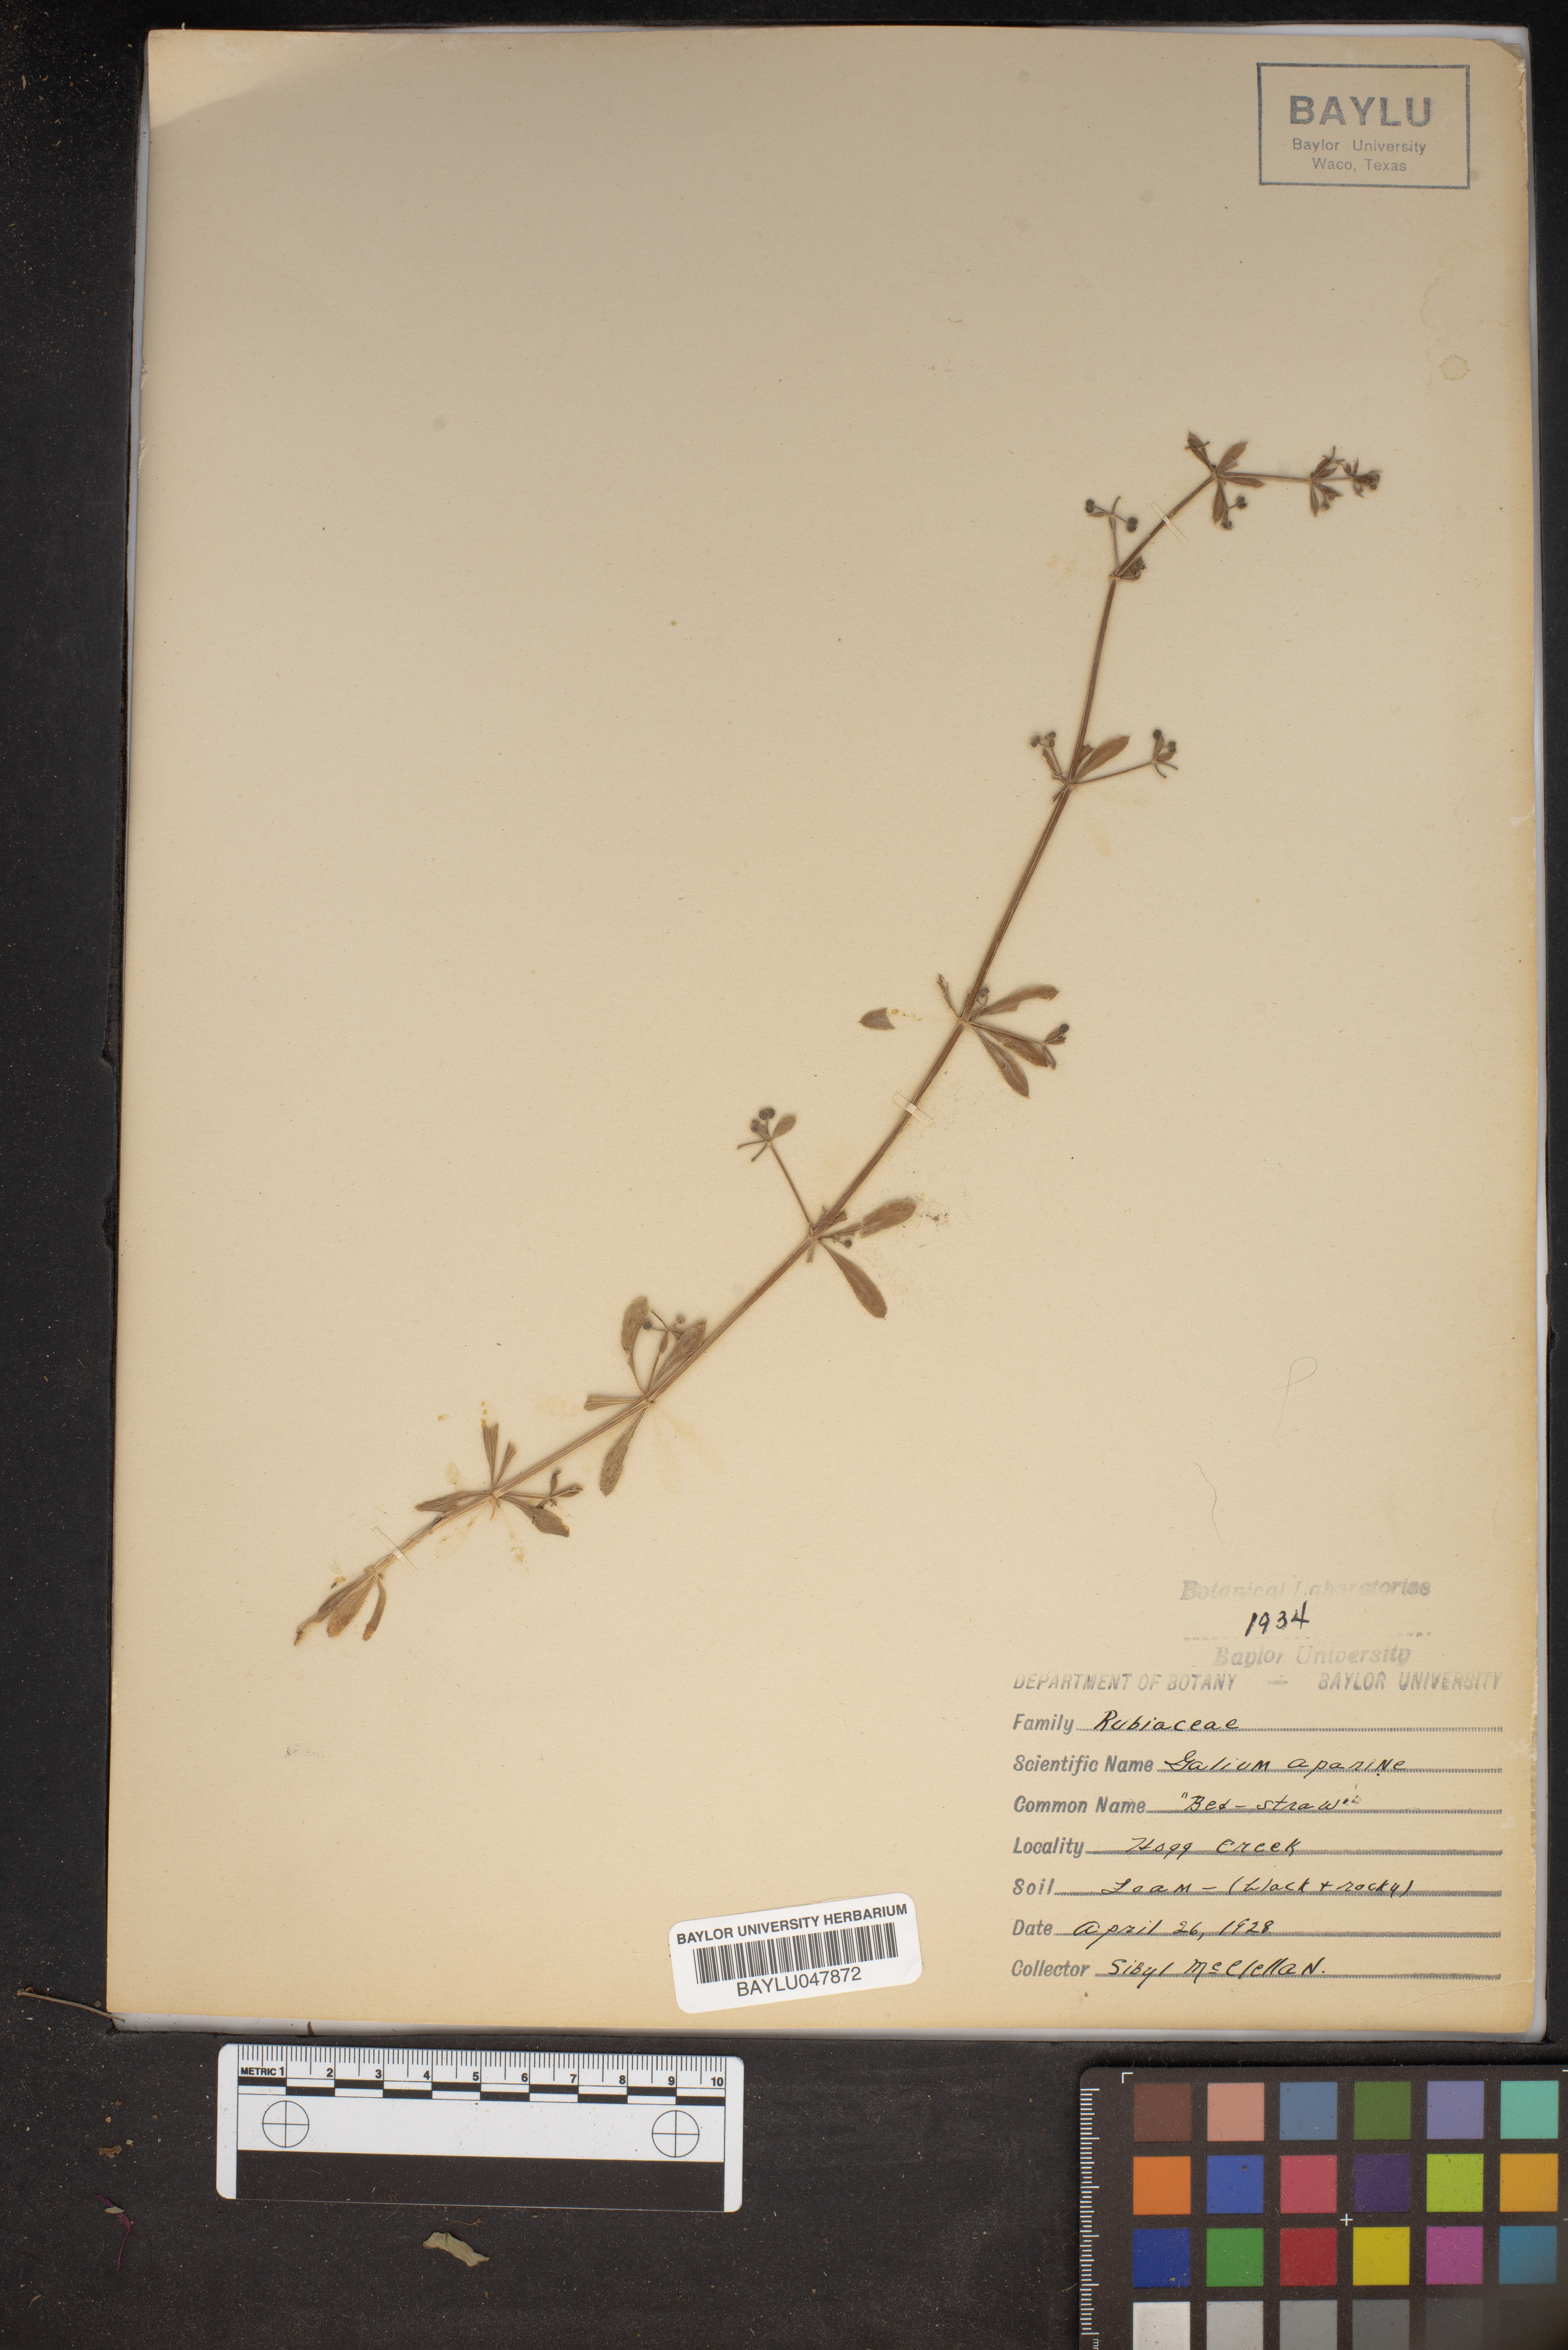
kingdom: Plantae
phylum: Tracheophyta
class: Magnoliopsida
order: Gentianales
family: Rubiaceae
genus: Galium
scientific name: Galium aparine
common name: Cleavers
